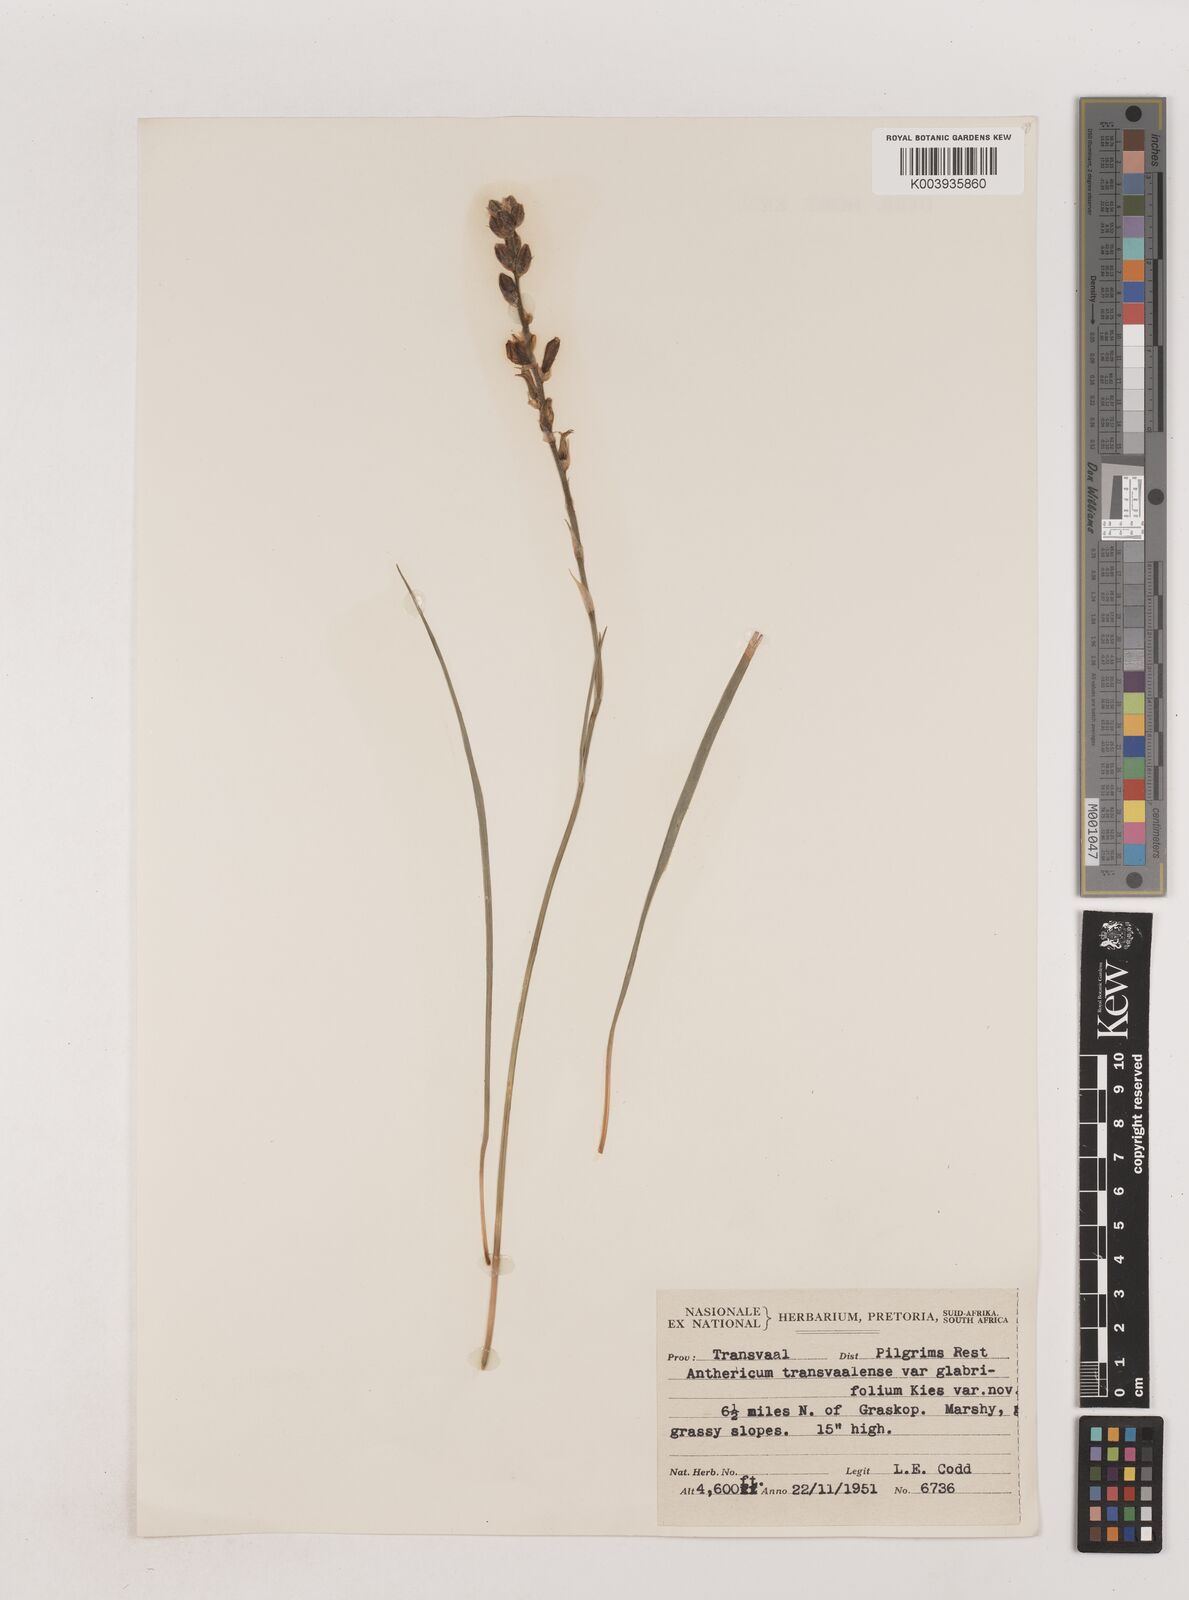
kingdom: Plantae
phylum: Tracheophyta
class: Liliopsida
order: Asparagales
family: Asparagaceae
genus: Chlorophytum
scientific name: Chlorophytum transvaalense
